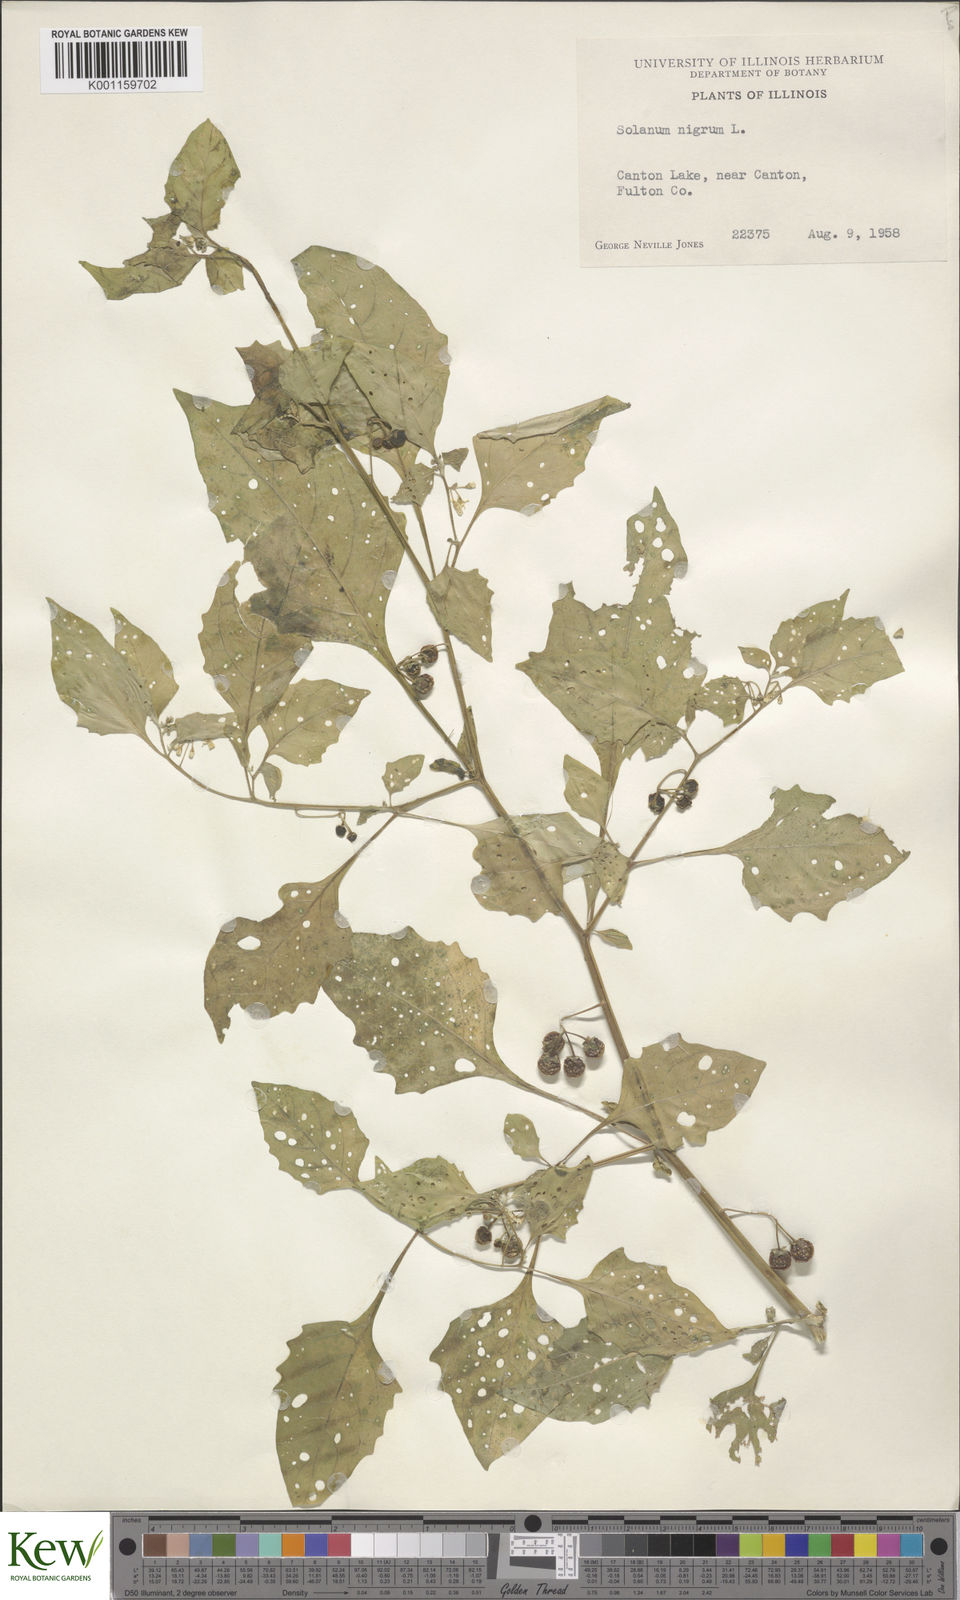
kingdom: Plantae
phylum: Tracheophyta
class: Magnoliopsida
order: Solanales
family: Solanaceae
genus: Solanum
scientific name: Solanum emulans
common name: Eastern black nightshade
